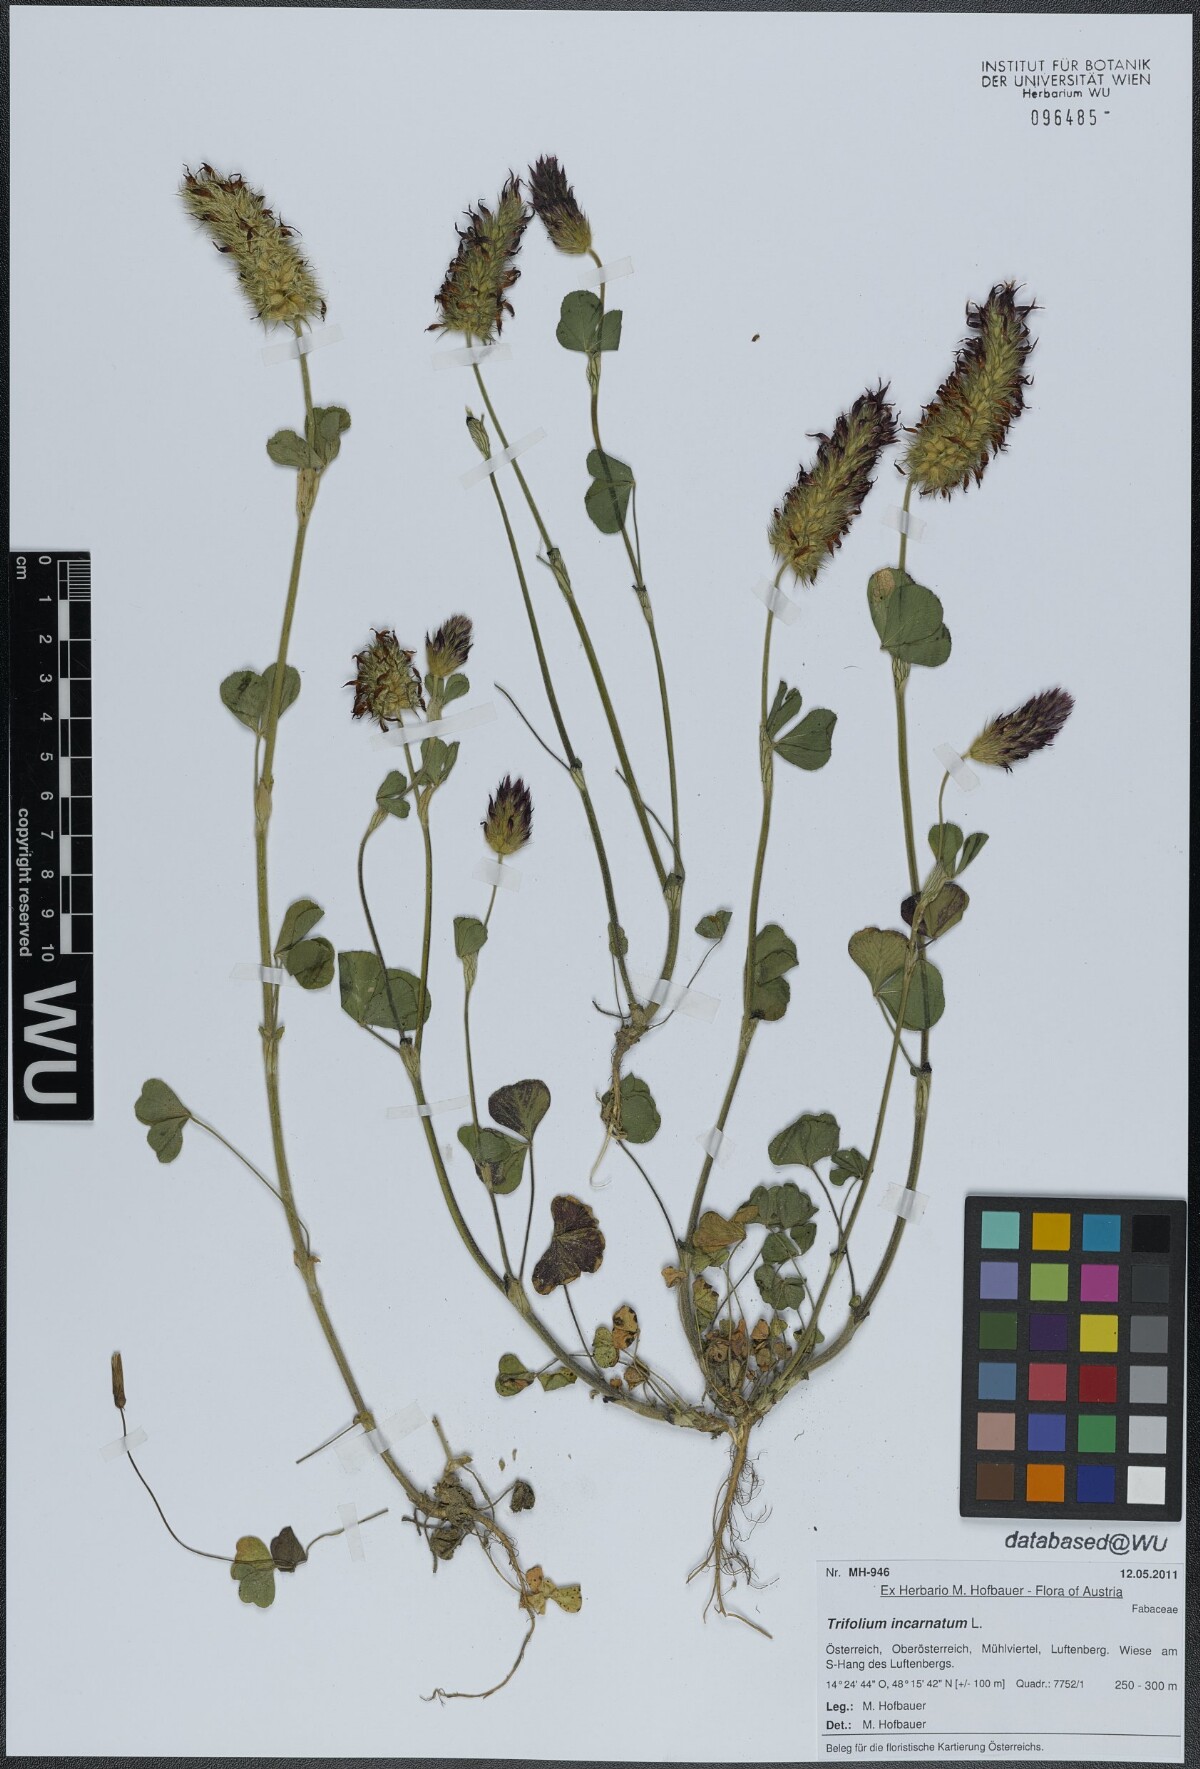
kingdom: Plantae
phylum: Tracheophyta
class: Magnoliopsida
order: Fabales
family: Fabaceae
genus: Trifolium
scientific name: Trifolium incarnatum
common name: Crimson clover
